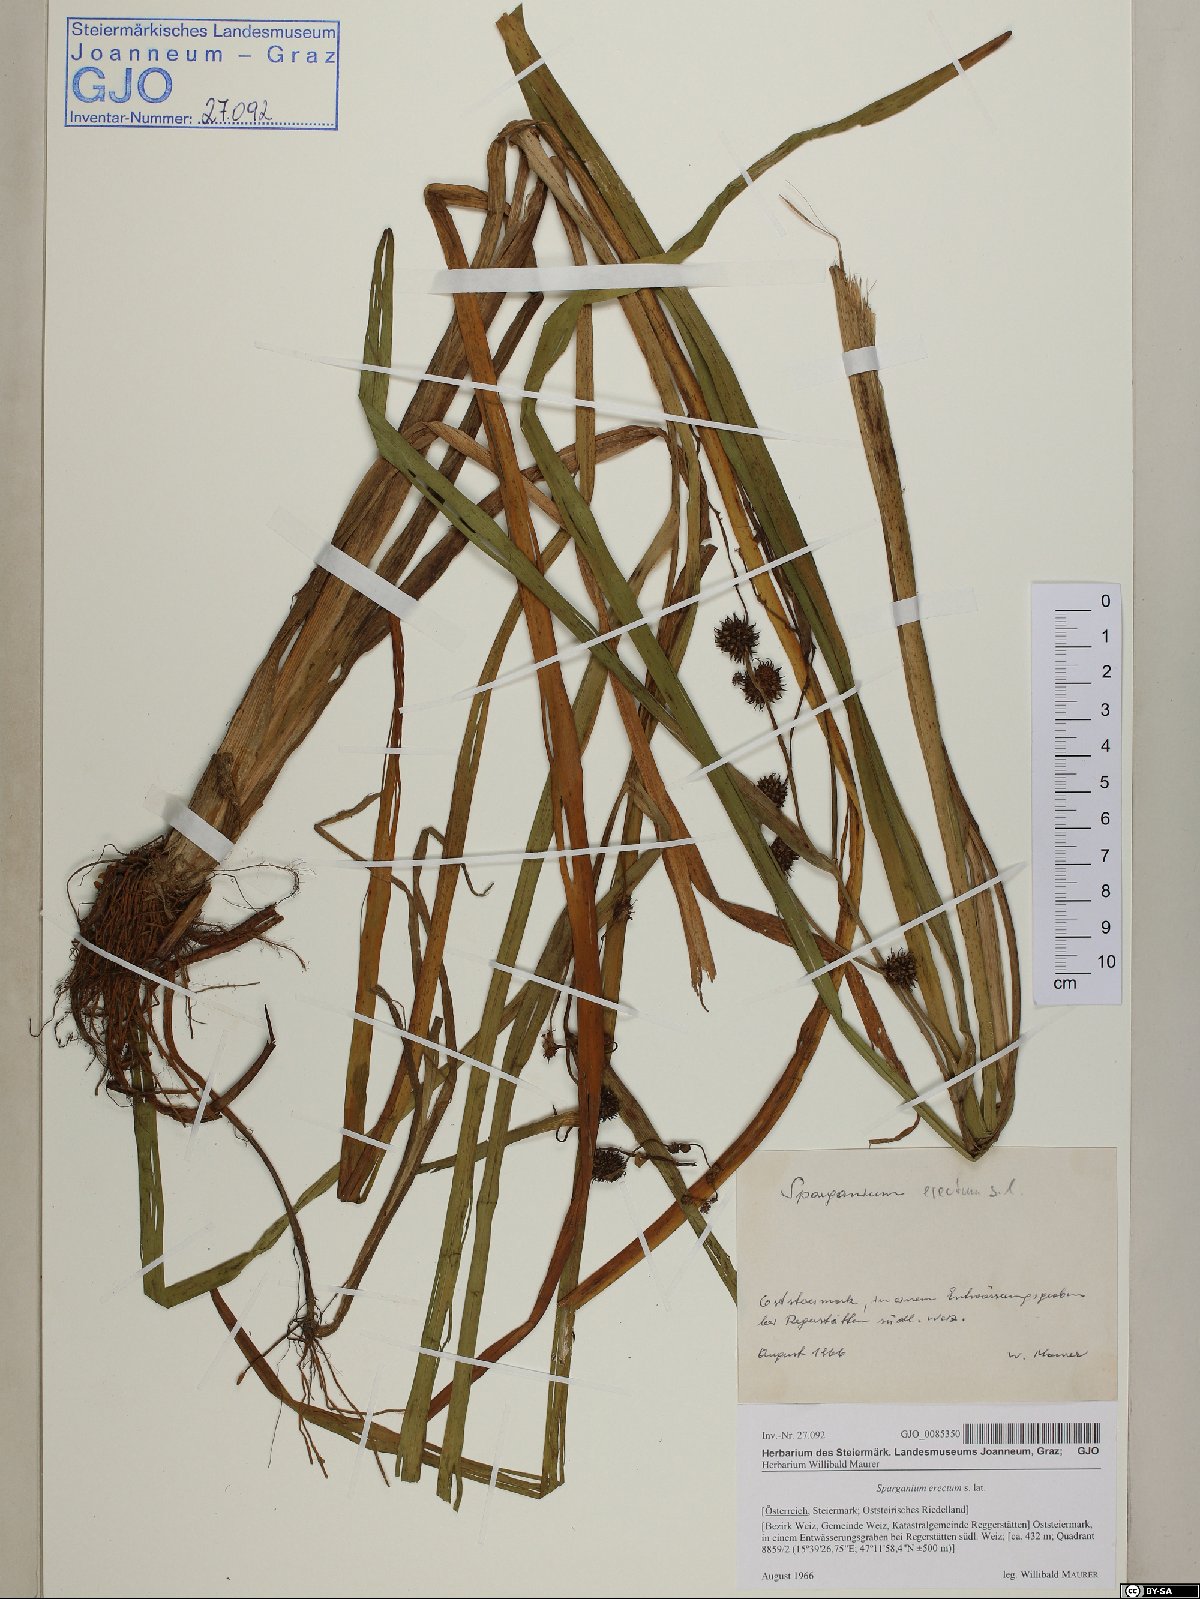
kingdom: Plantae
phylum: Tracheophyta
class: Liliopsida
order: Poales
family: Typhaceae
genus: Sparganium
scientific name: Sparganium erectum
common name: Branched bur-reed
